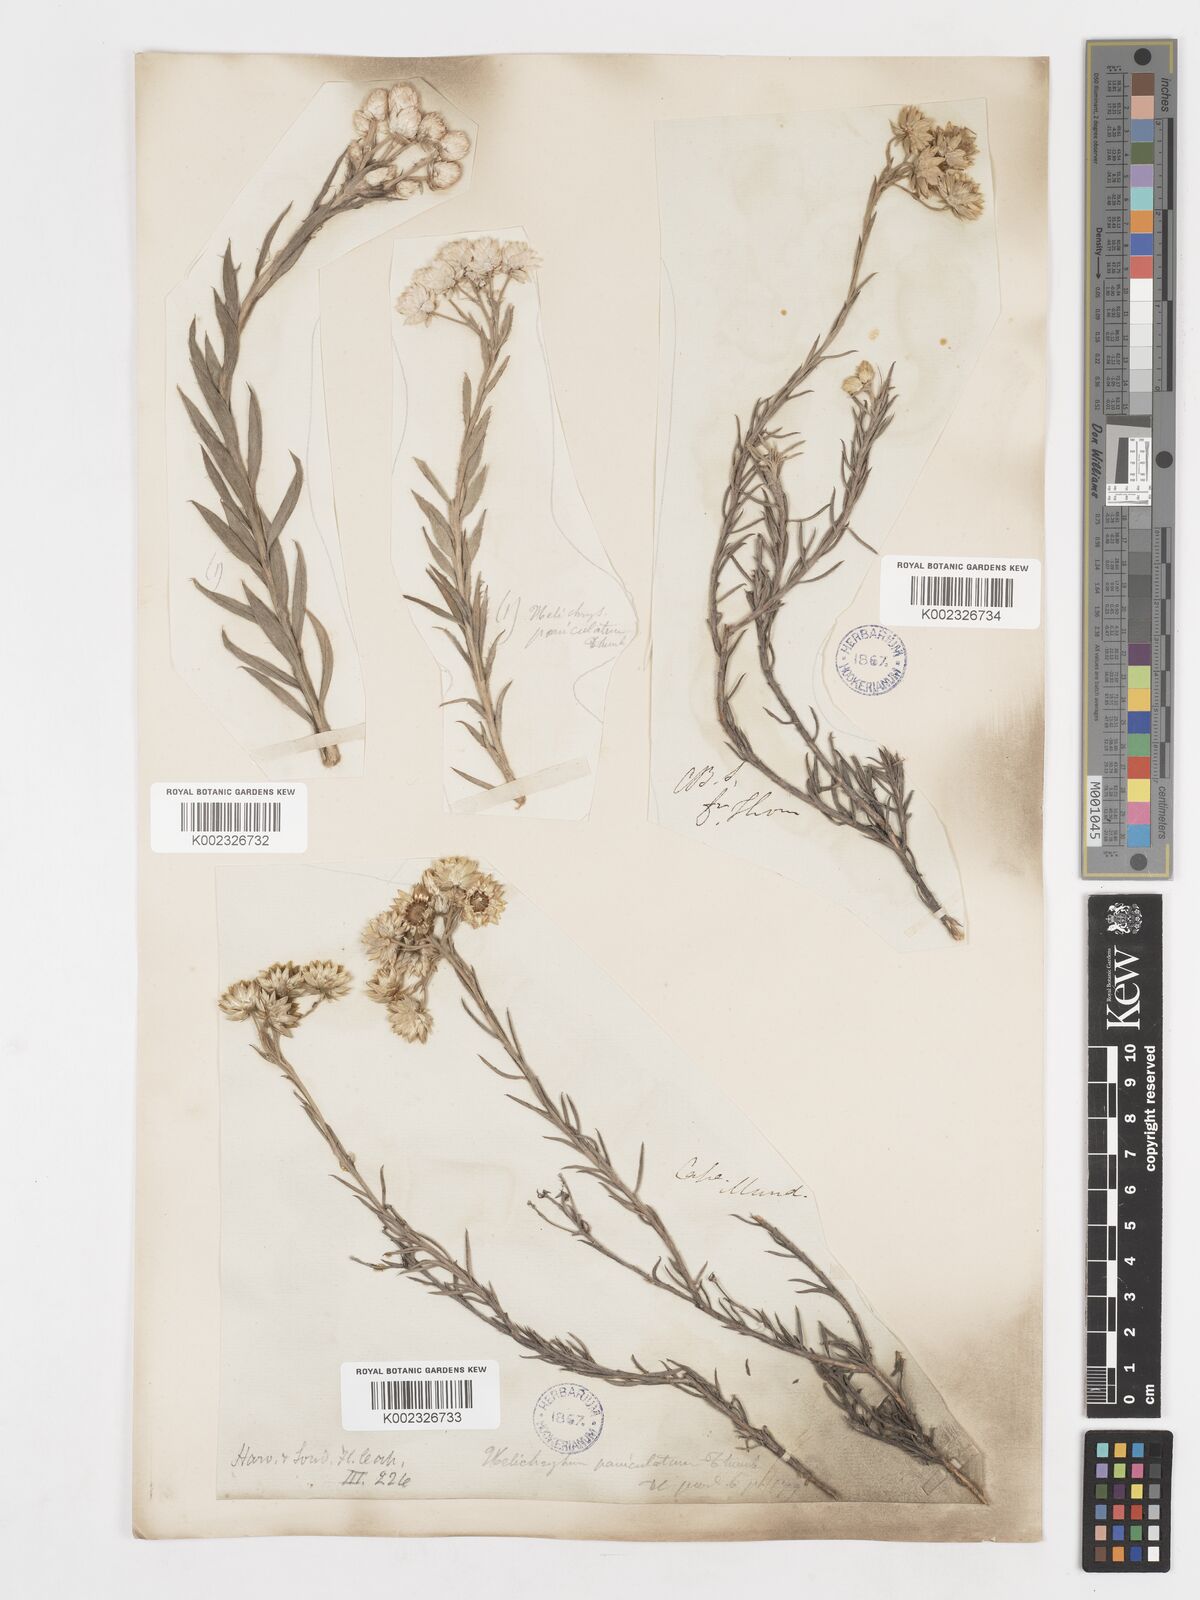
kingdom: Plantae
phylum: Tracheophyta
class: Magnoliopsida
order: Asterales
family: Asteraceae
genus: Achyranthemum
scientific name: Achyranthemum paniculatum
